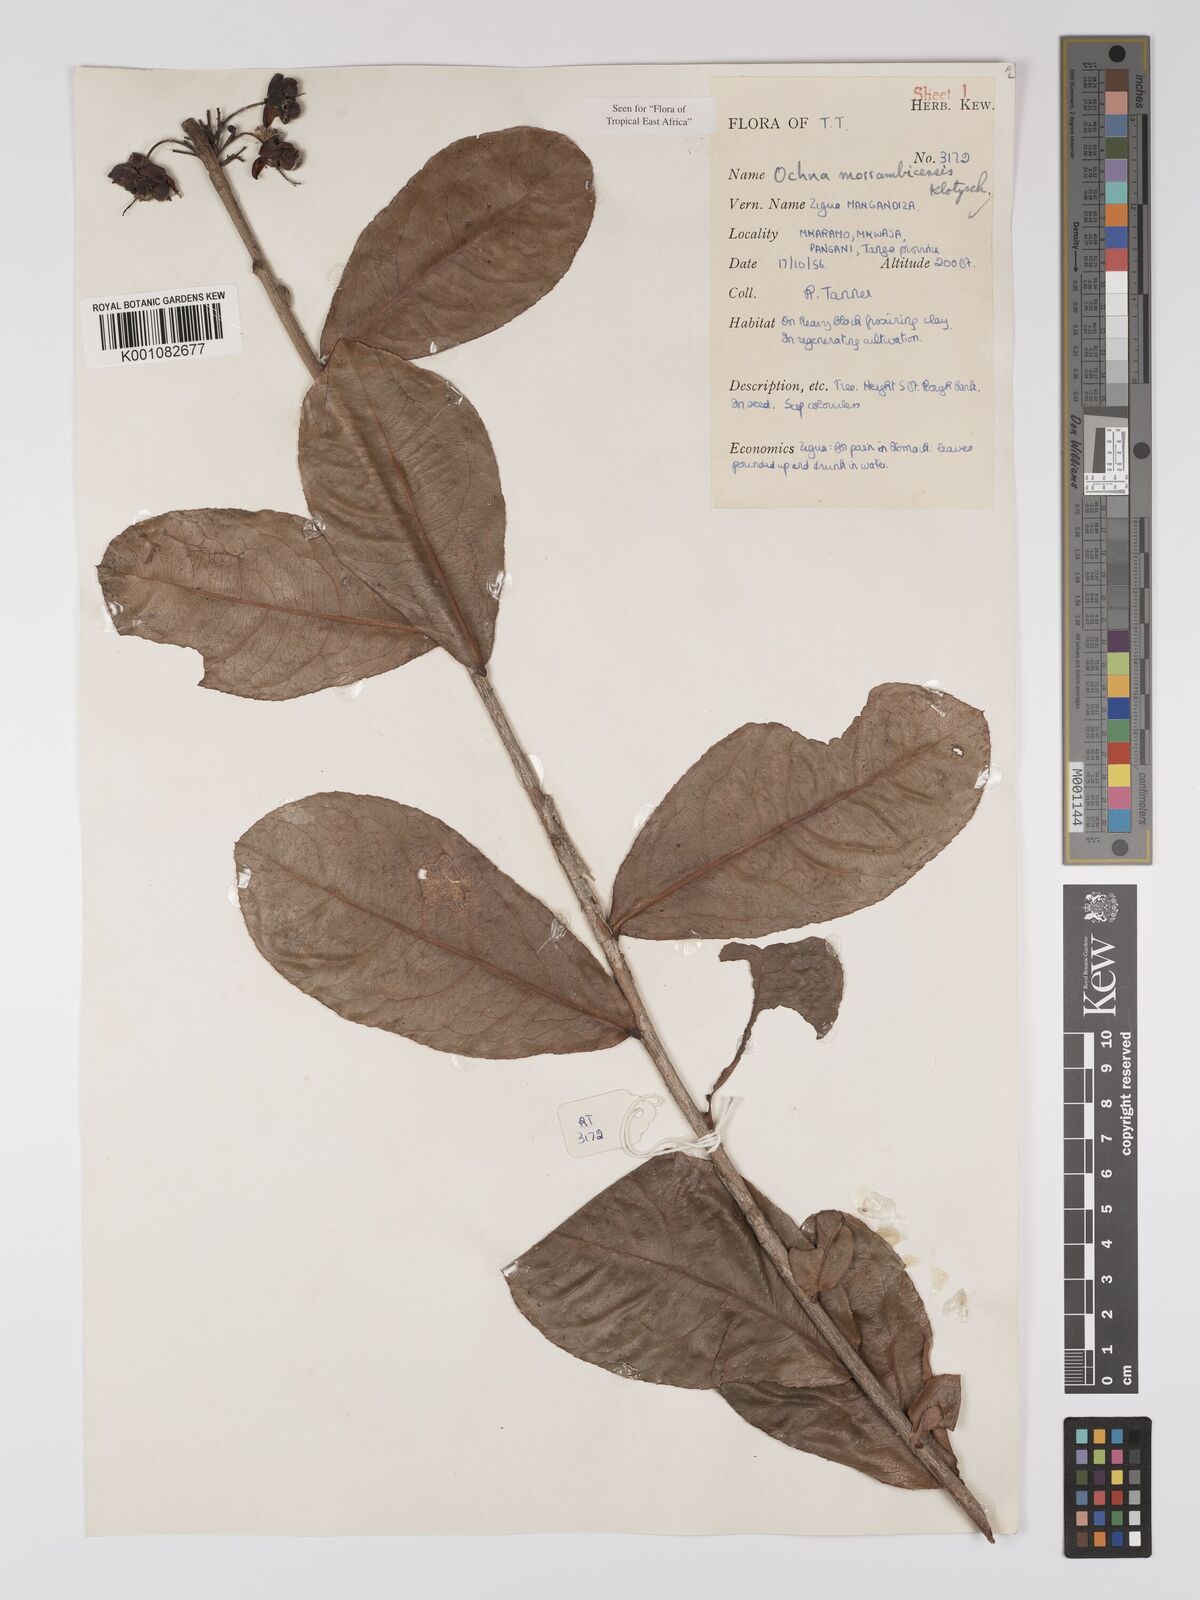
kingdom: Plantae
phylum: Tracheophyta
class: Magnoliopsida
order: Malpighiales
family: Ochnaceae
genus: Ochna
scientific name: Ochna atropurpurea
